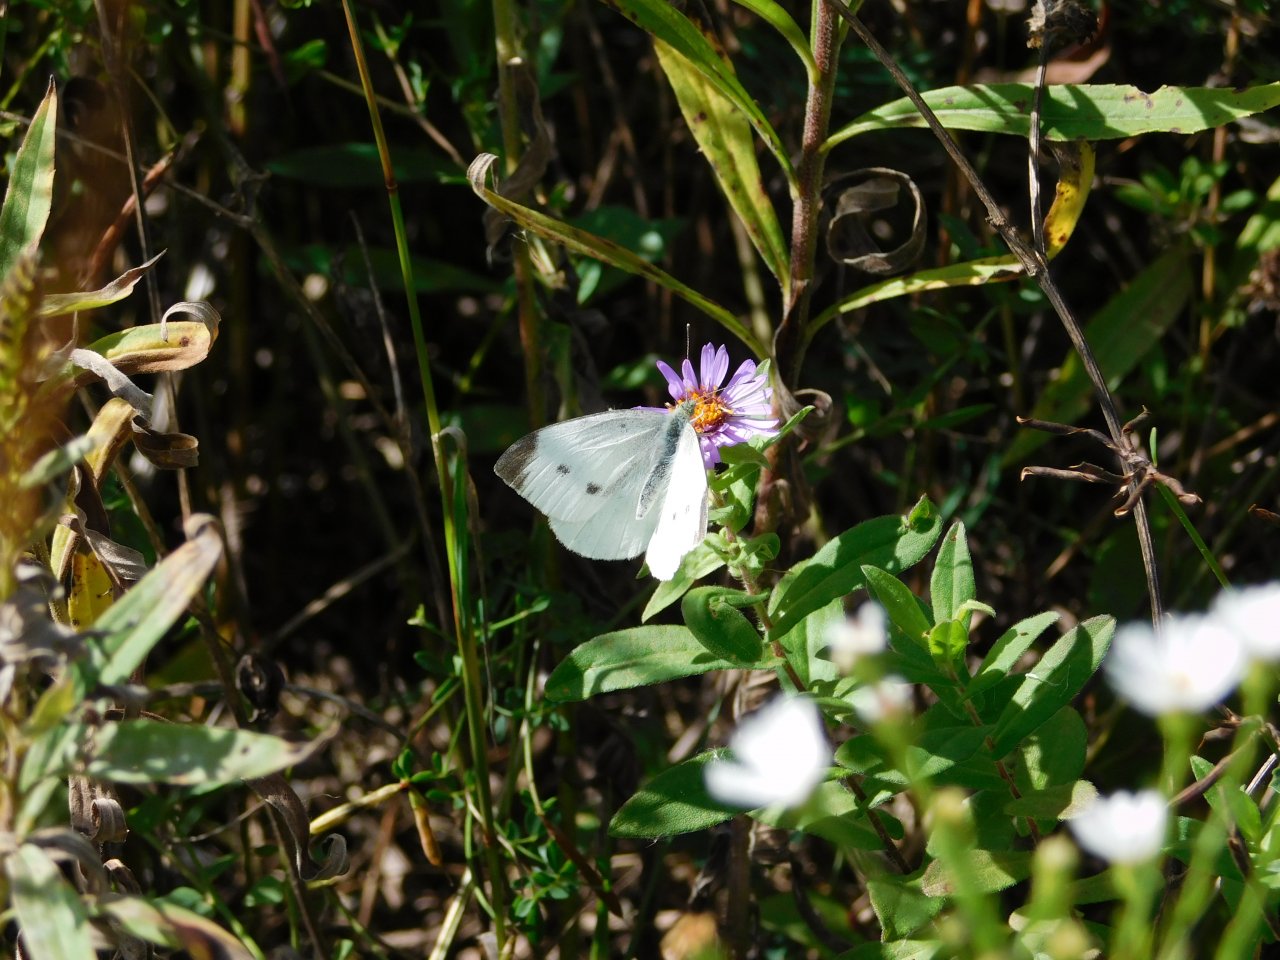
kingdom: Animalia
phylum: Arthropoda
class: Insecta
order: Lepidoptera
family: Pieridae
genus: Pieris
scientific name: Pieris rapae
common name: Cabbage White
